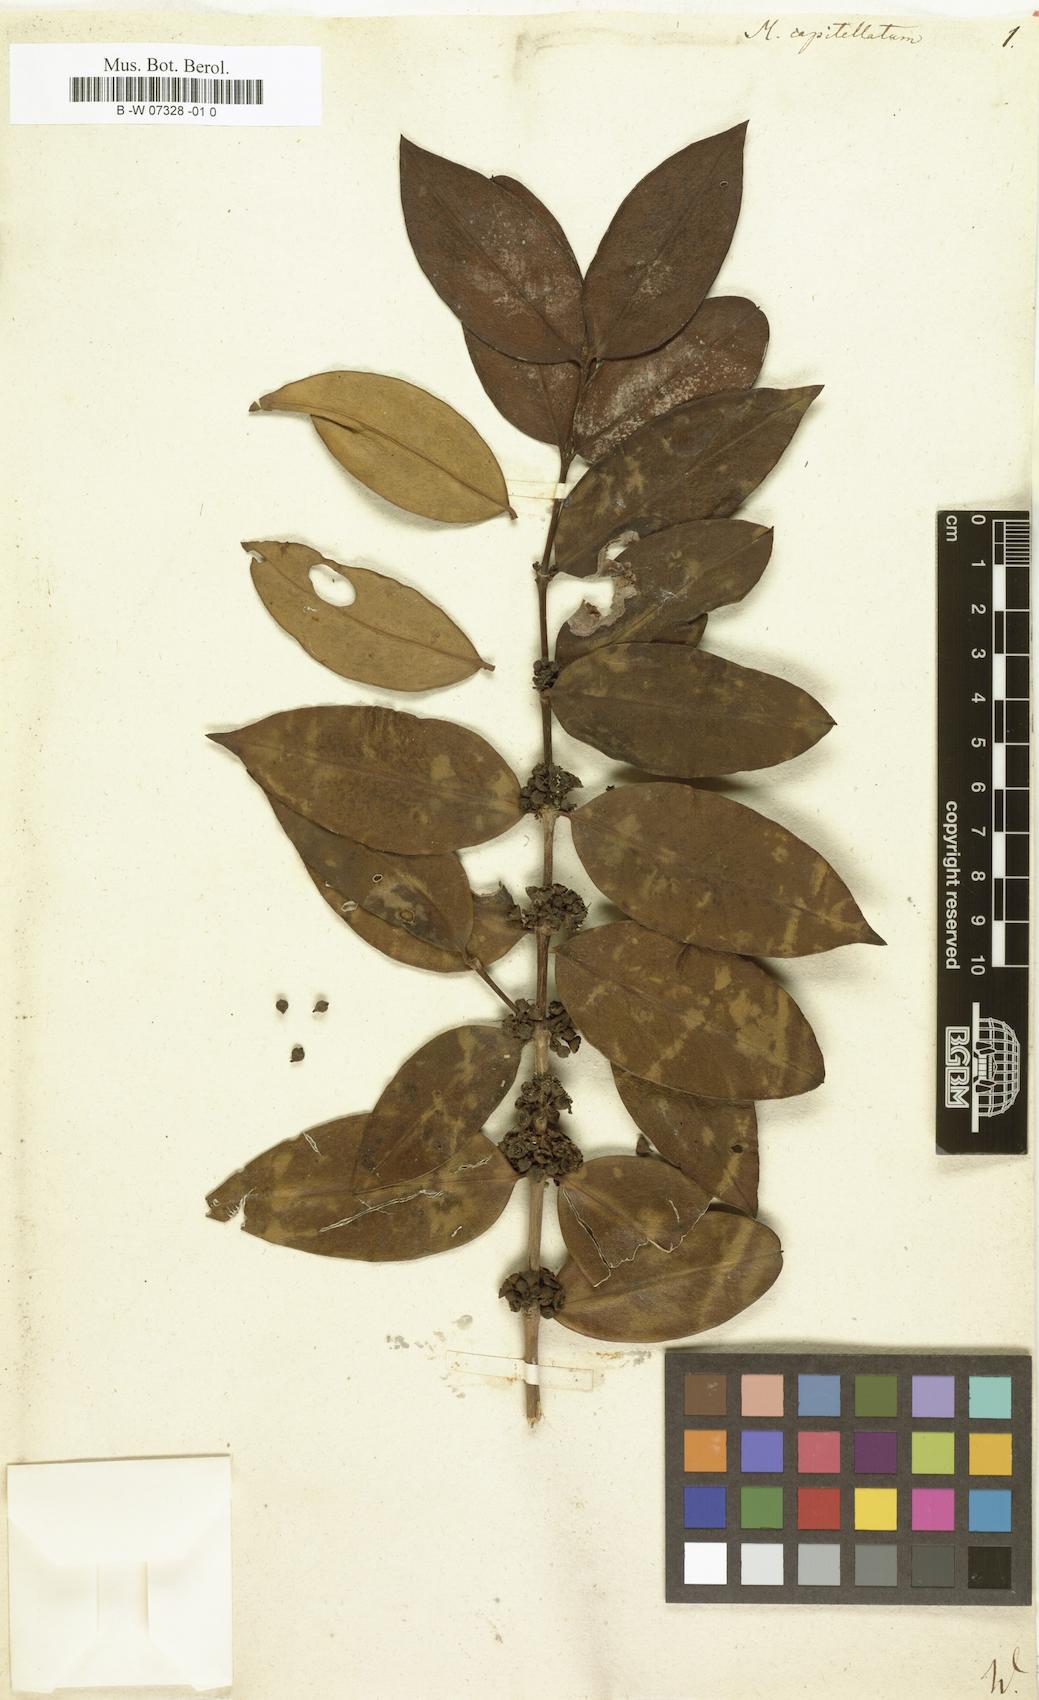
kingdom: Plantae
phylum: Tracheophyta
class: Magnoliopsida
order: Myrtales
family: Melastomataceae
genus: Memecylon
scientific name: Memecylon capitellatum
